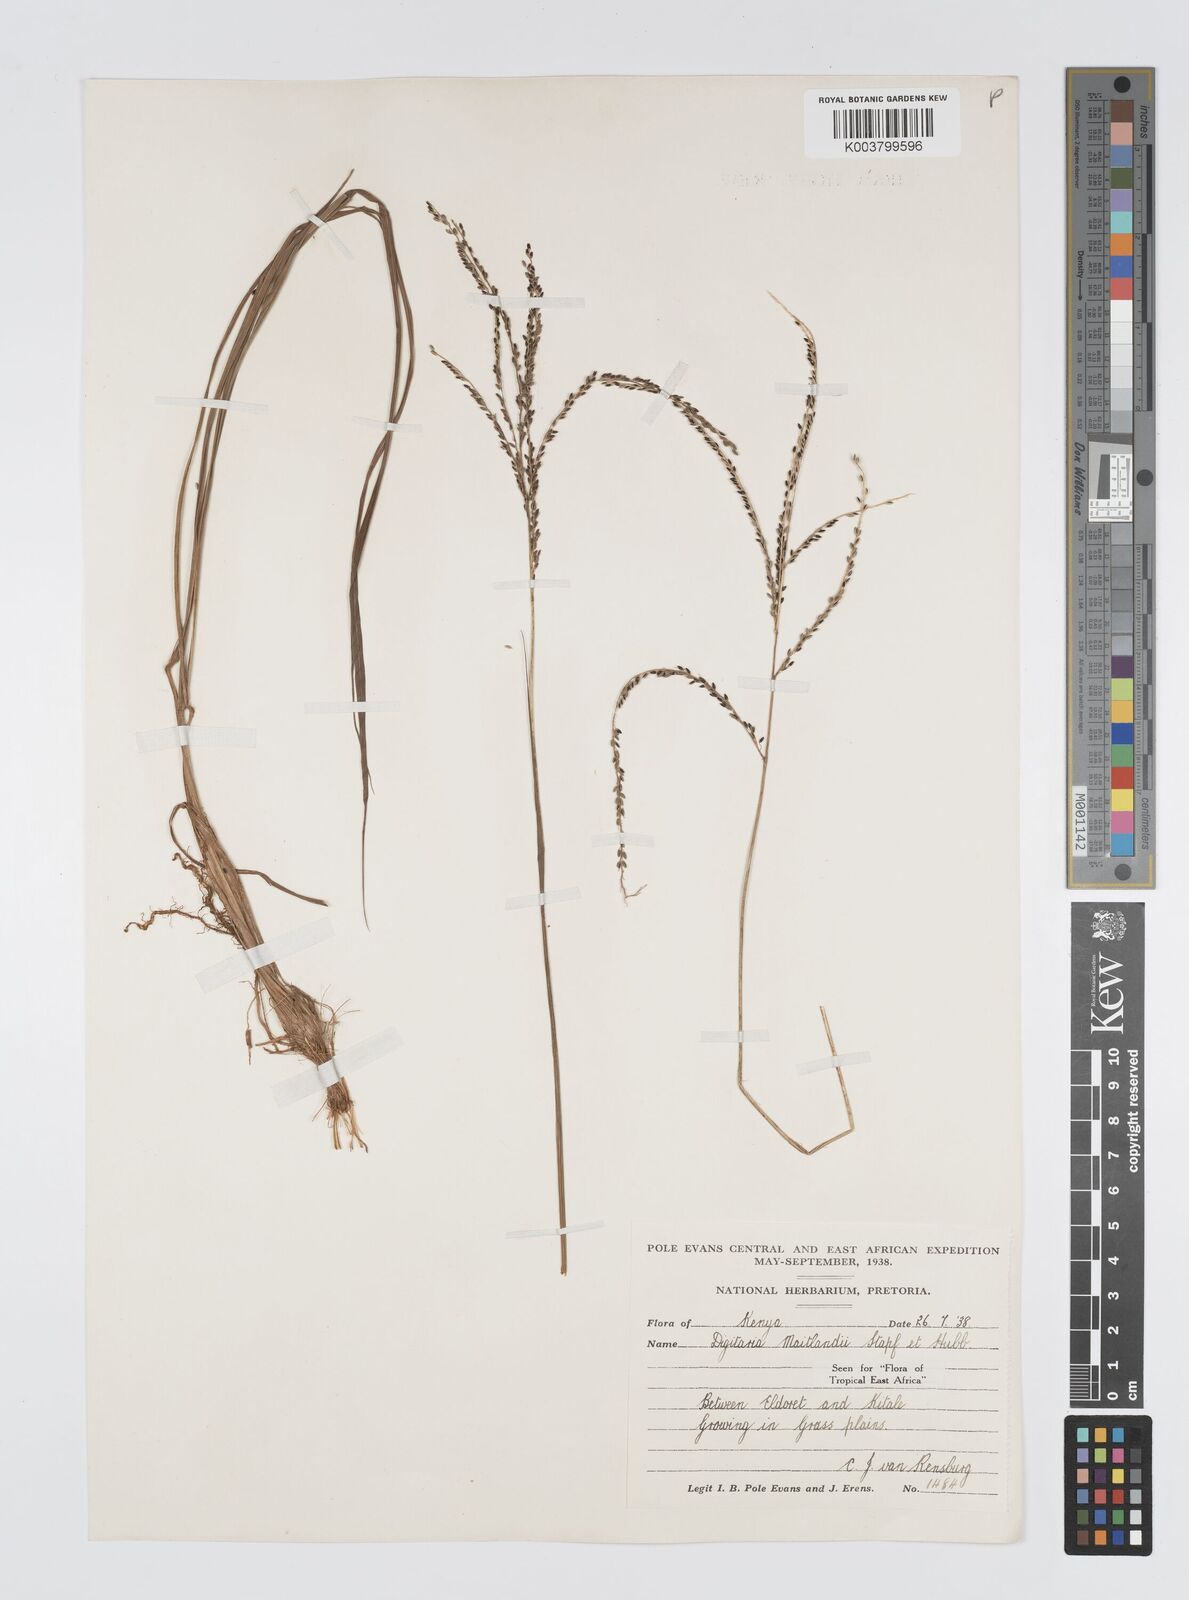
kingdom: Plantae
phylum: Tracheophyta
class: Liliopsida
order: Poales
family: Poaceae
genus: Digitaria
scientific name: Digitaria maitlandii
